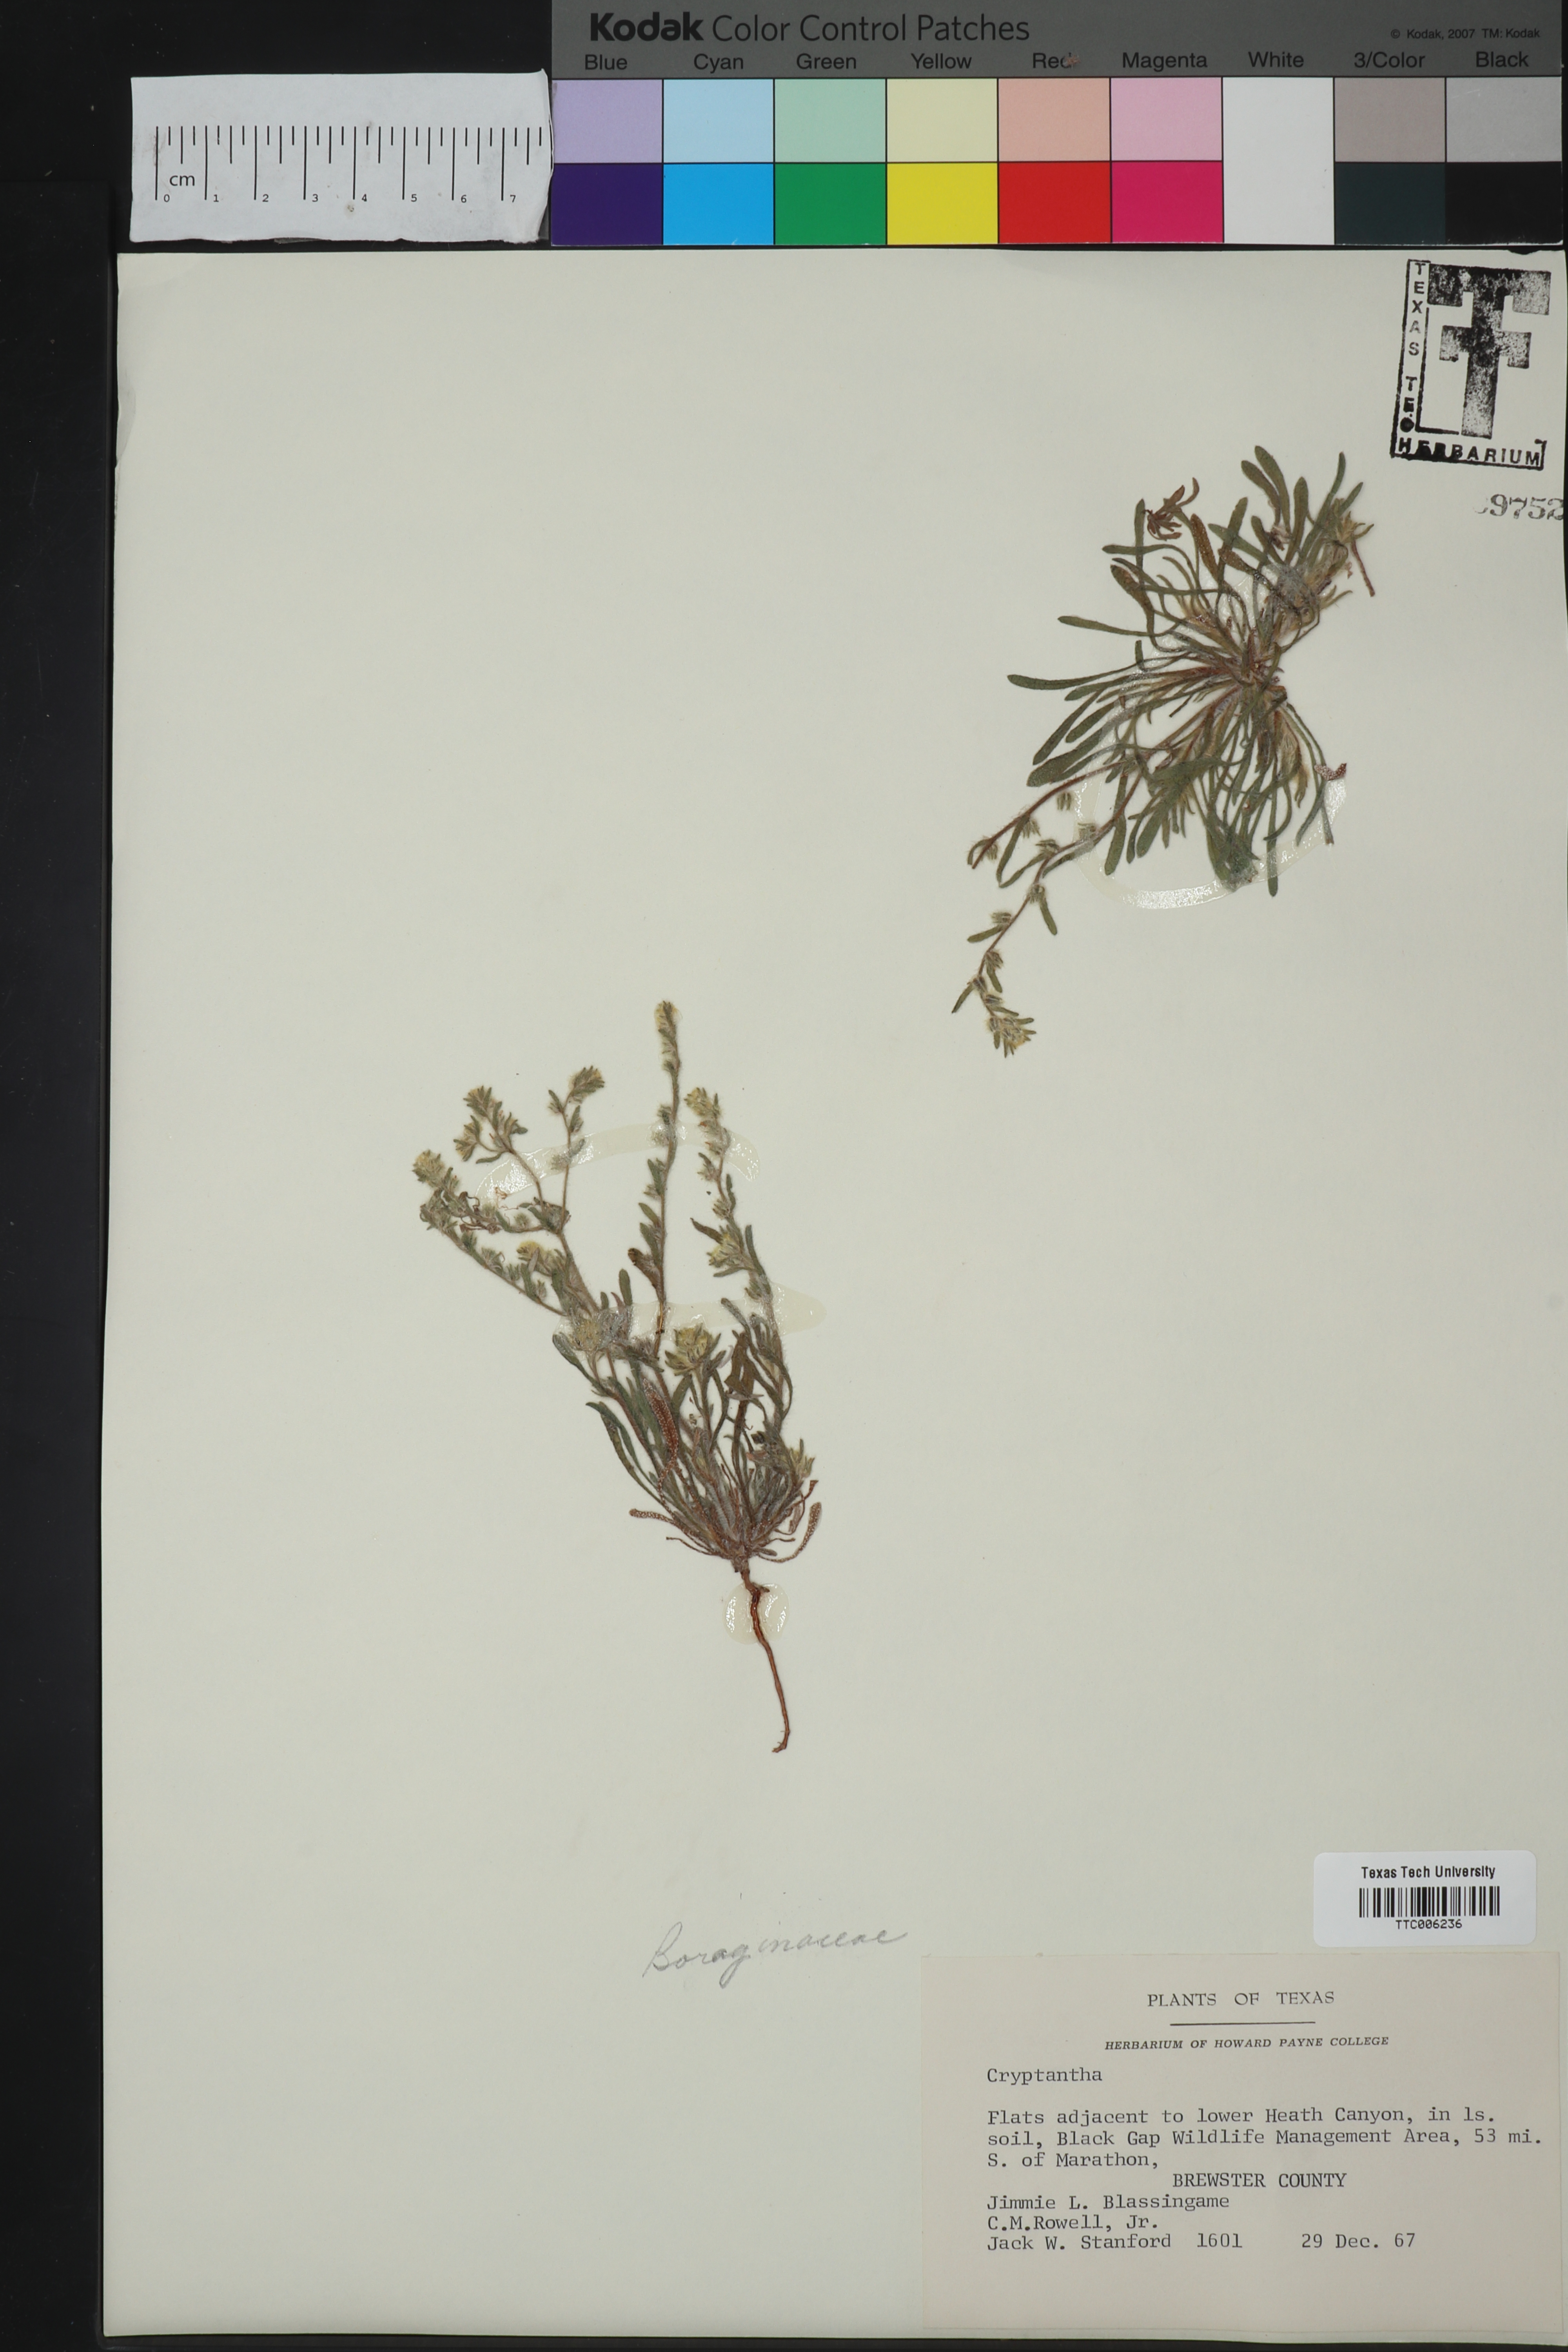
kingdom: Plantae
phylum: Tracheophyta
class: Magnoliopsida
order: Boraginales
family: Boraginaceae
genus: Cryptantha
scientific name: Cryptantha
